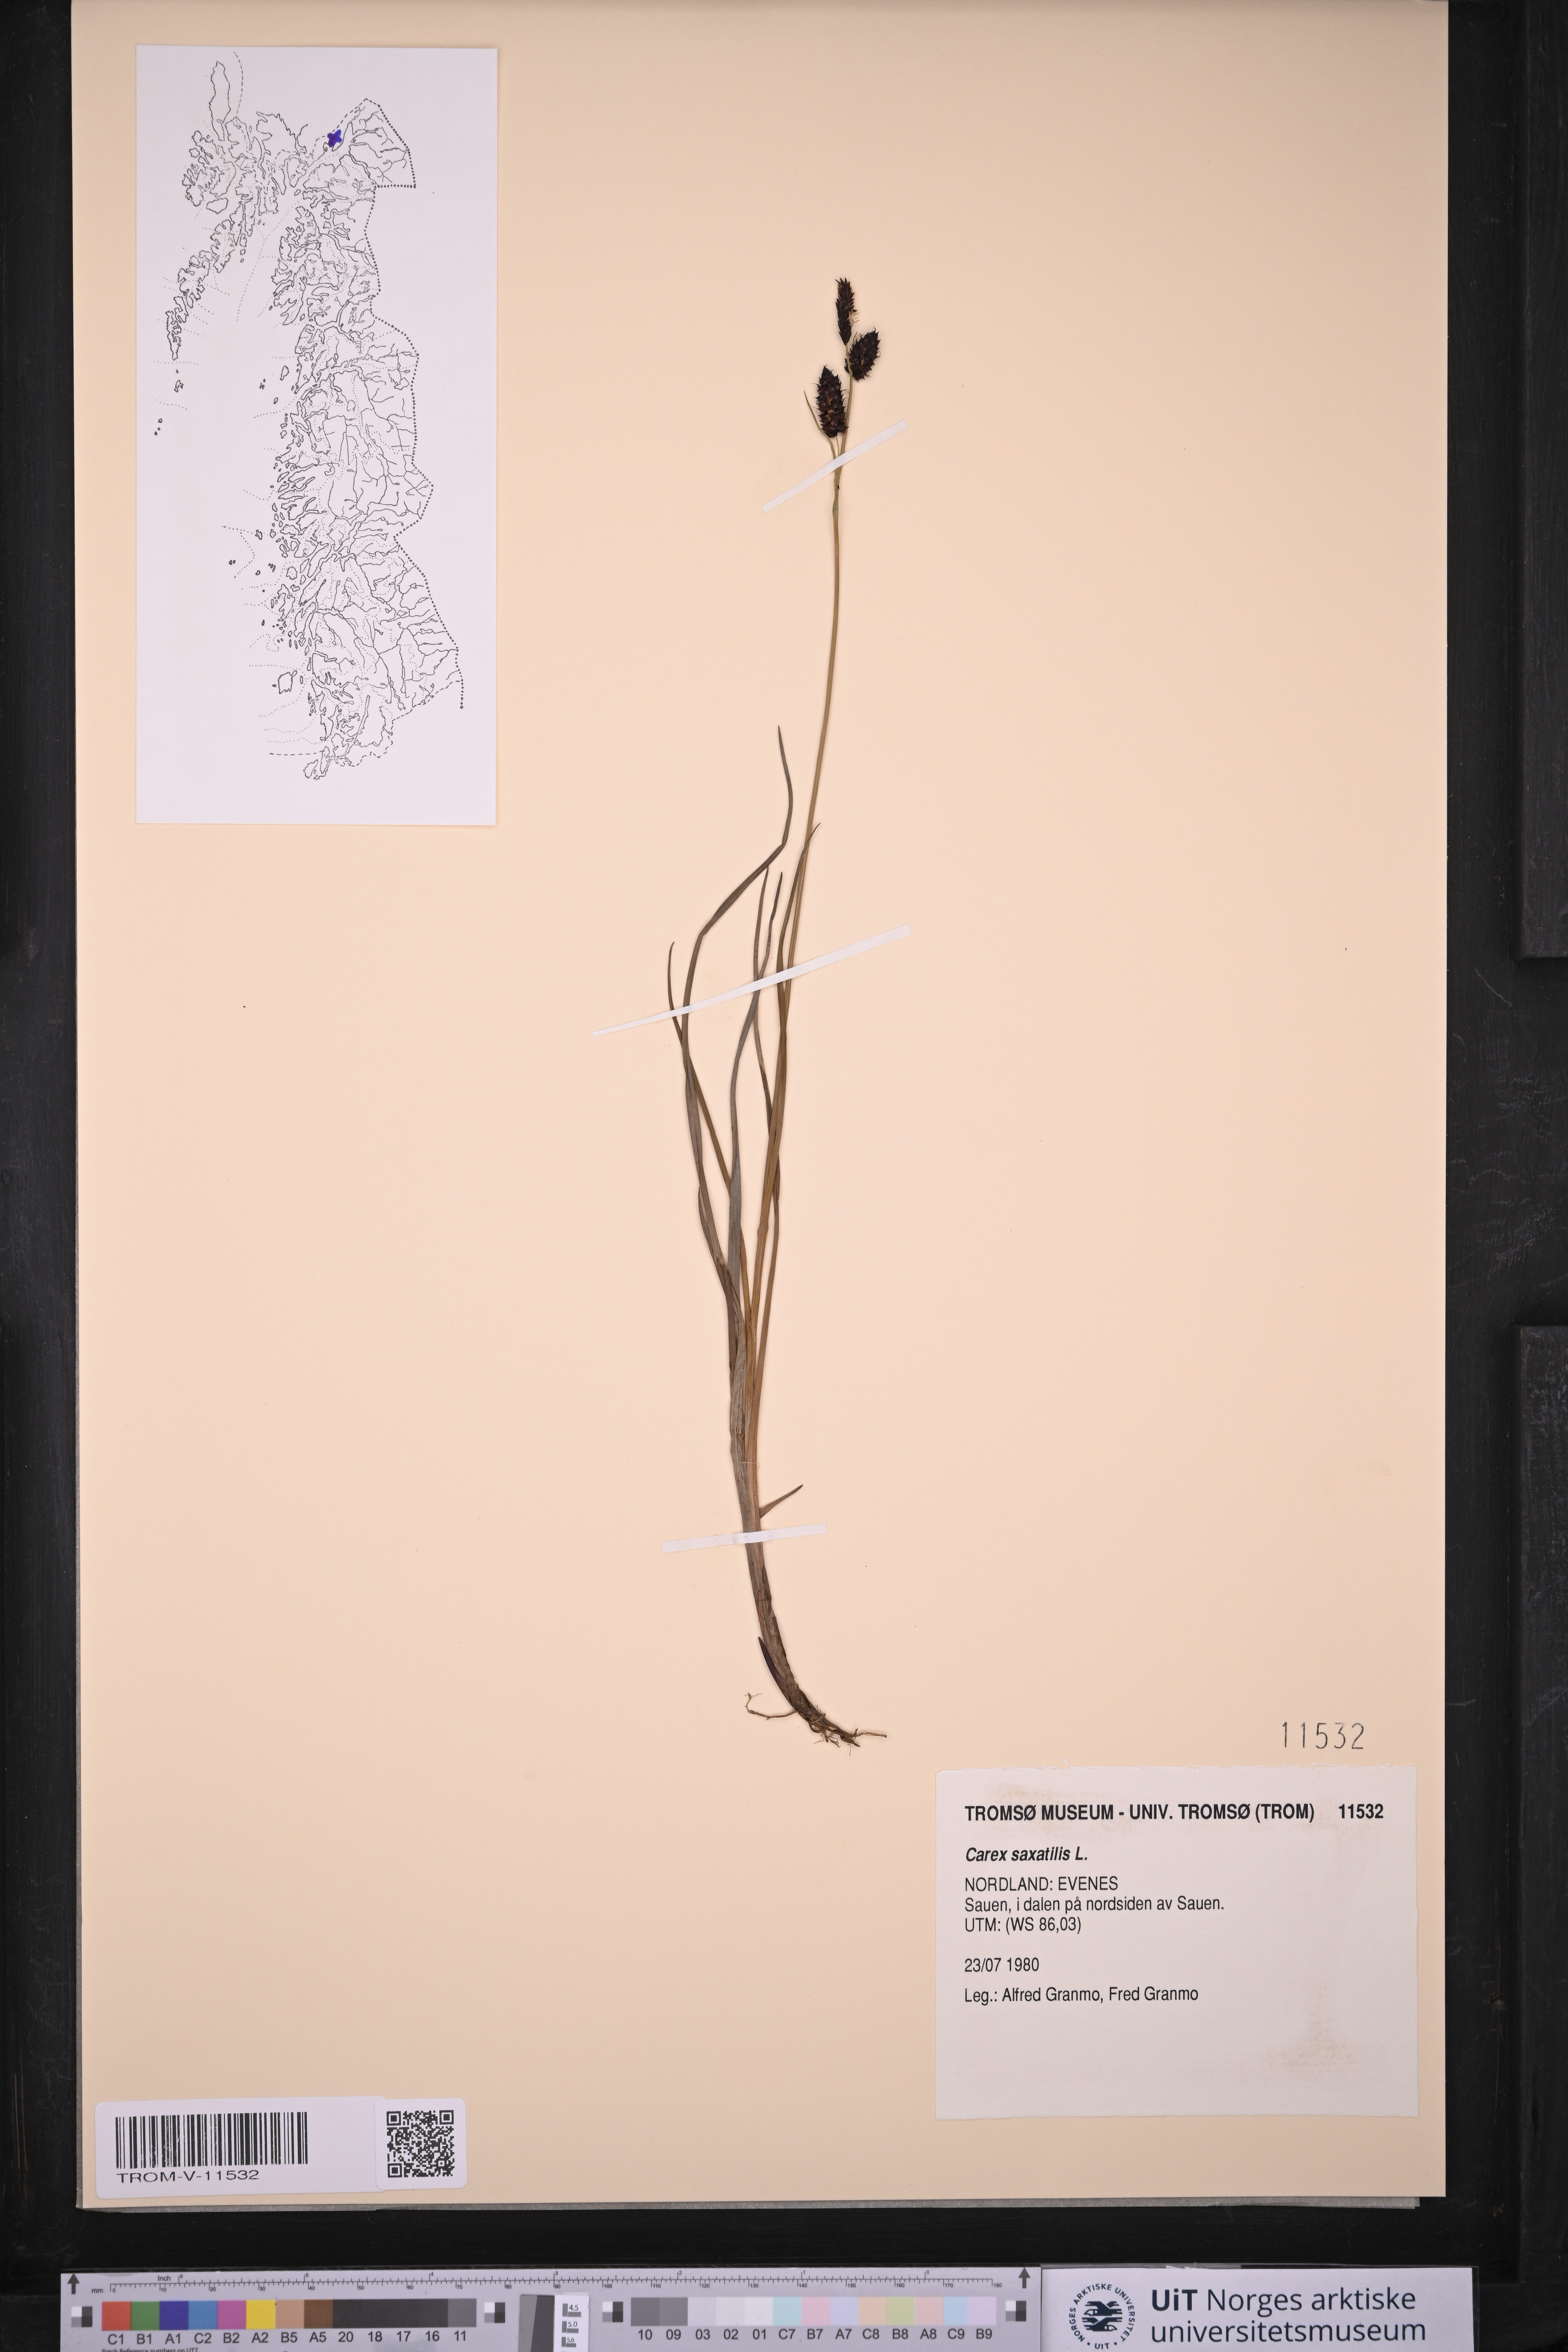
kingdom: Plantae
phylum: Tracheophyta
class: Liliopsida
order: Poales
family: Cyperaceae
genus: Carex
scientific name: Carex saxatilis
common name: Russet sedge
